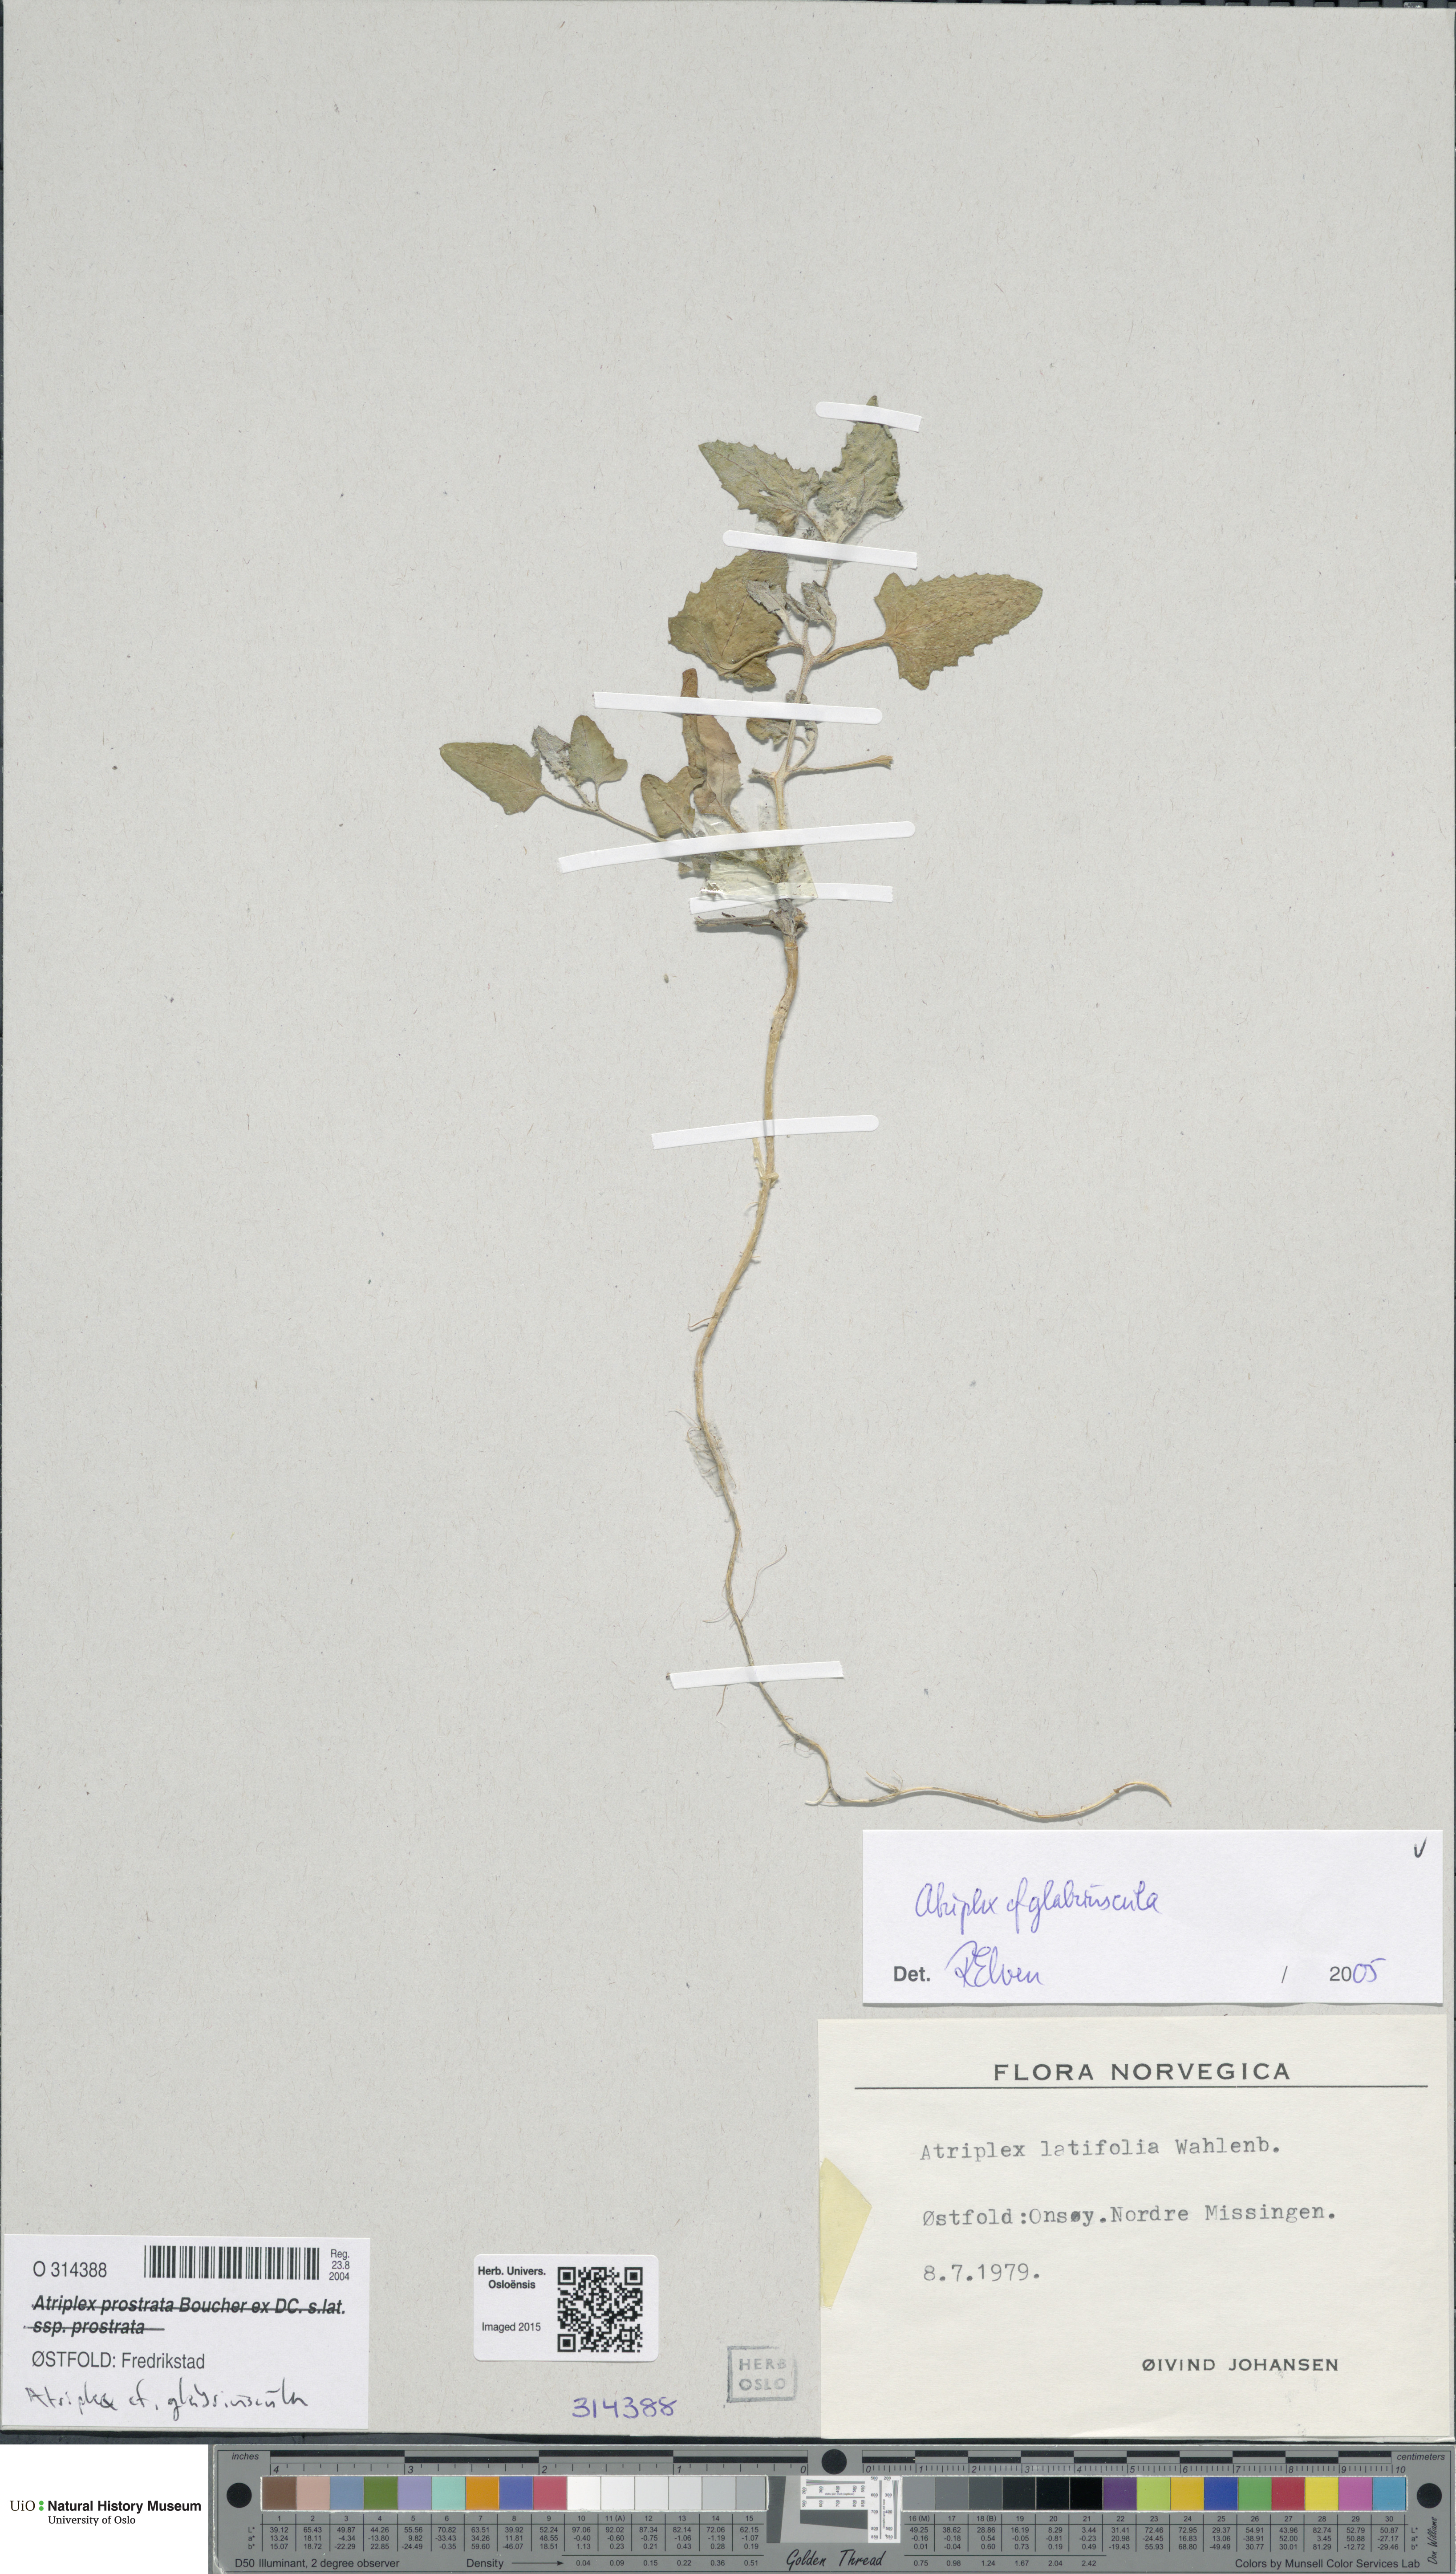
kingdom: Plantae
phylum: Tracheophyta
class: Magnoliopsida
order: Caryophyllales
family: Amaranthaceae
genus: Atriplex
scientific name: Atriplex glabriuscula
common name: Babington's orache
